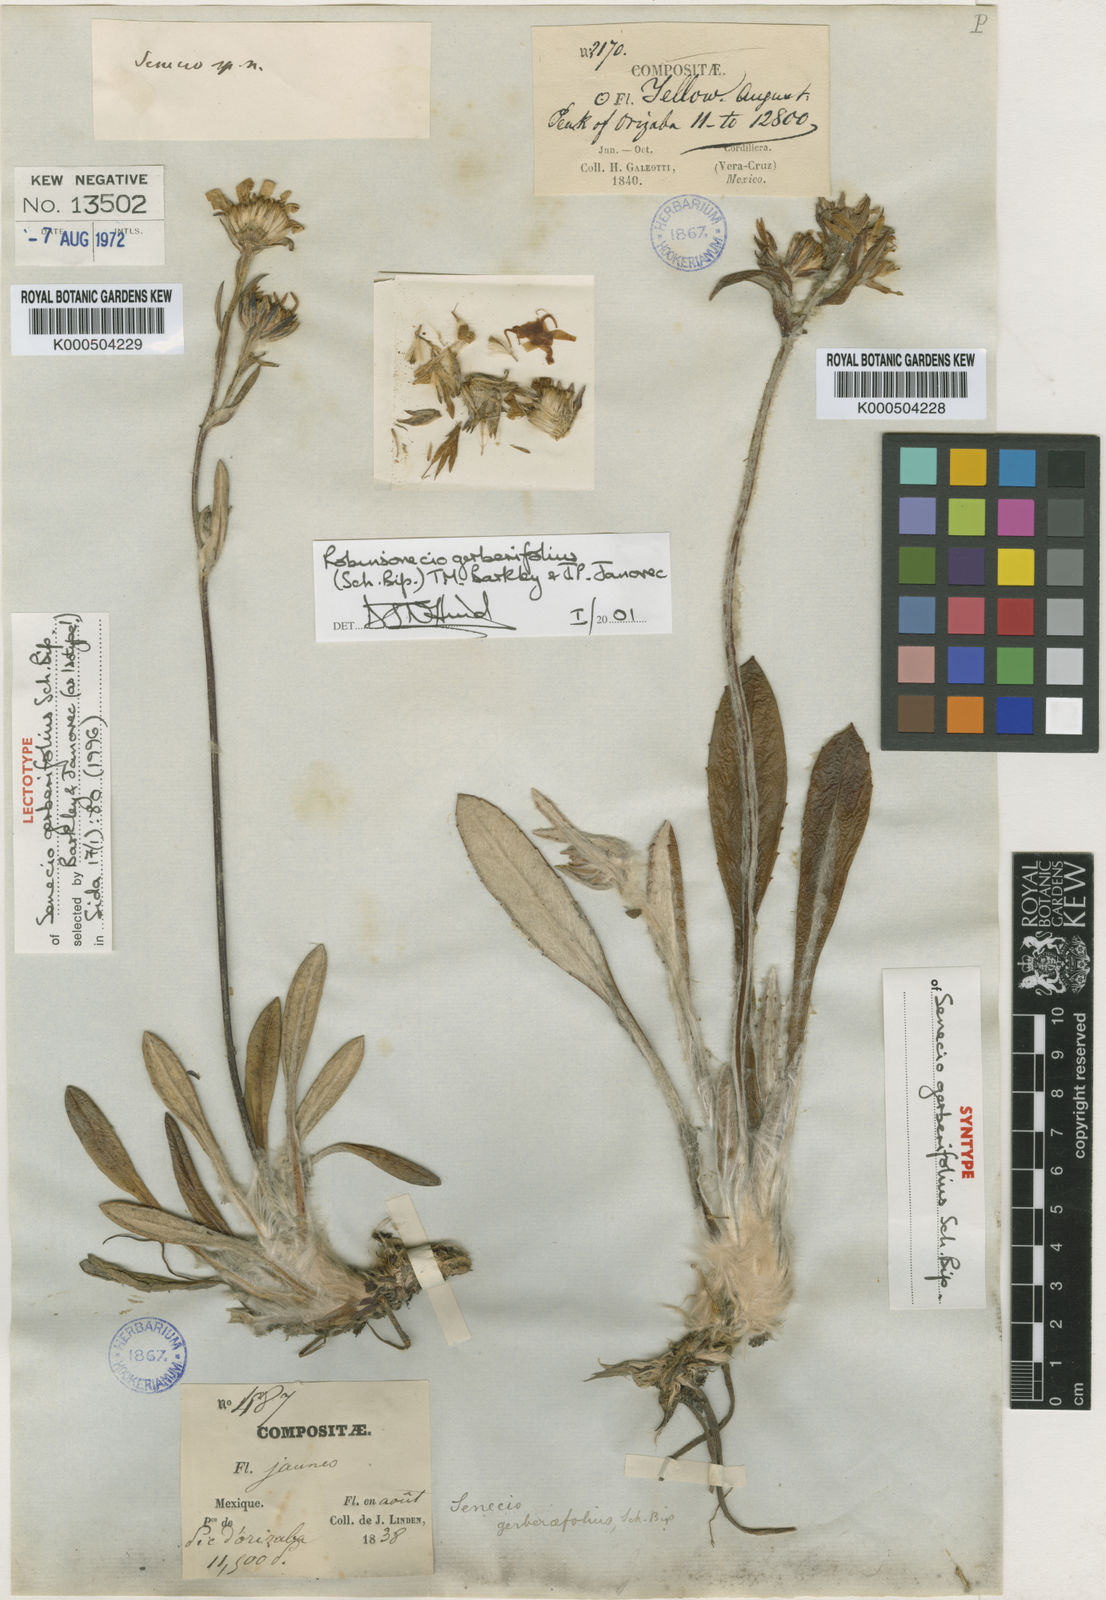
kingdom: Plantae
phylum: Tracheophyta
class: Magnoliopsida
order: Asterales
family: Asteraceae
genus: Robinsonecio
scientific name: Robinsonecio gerberifolius
